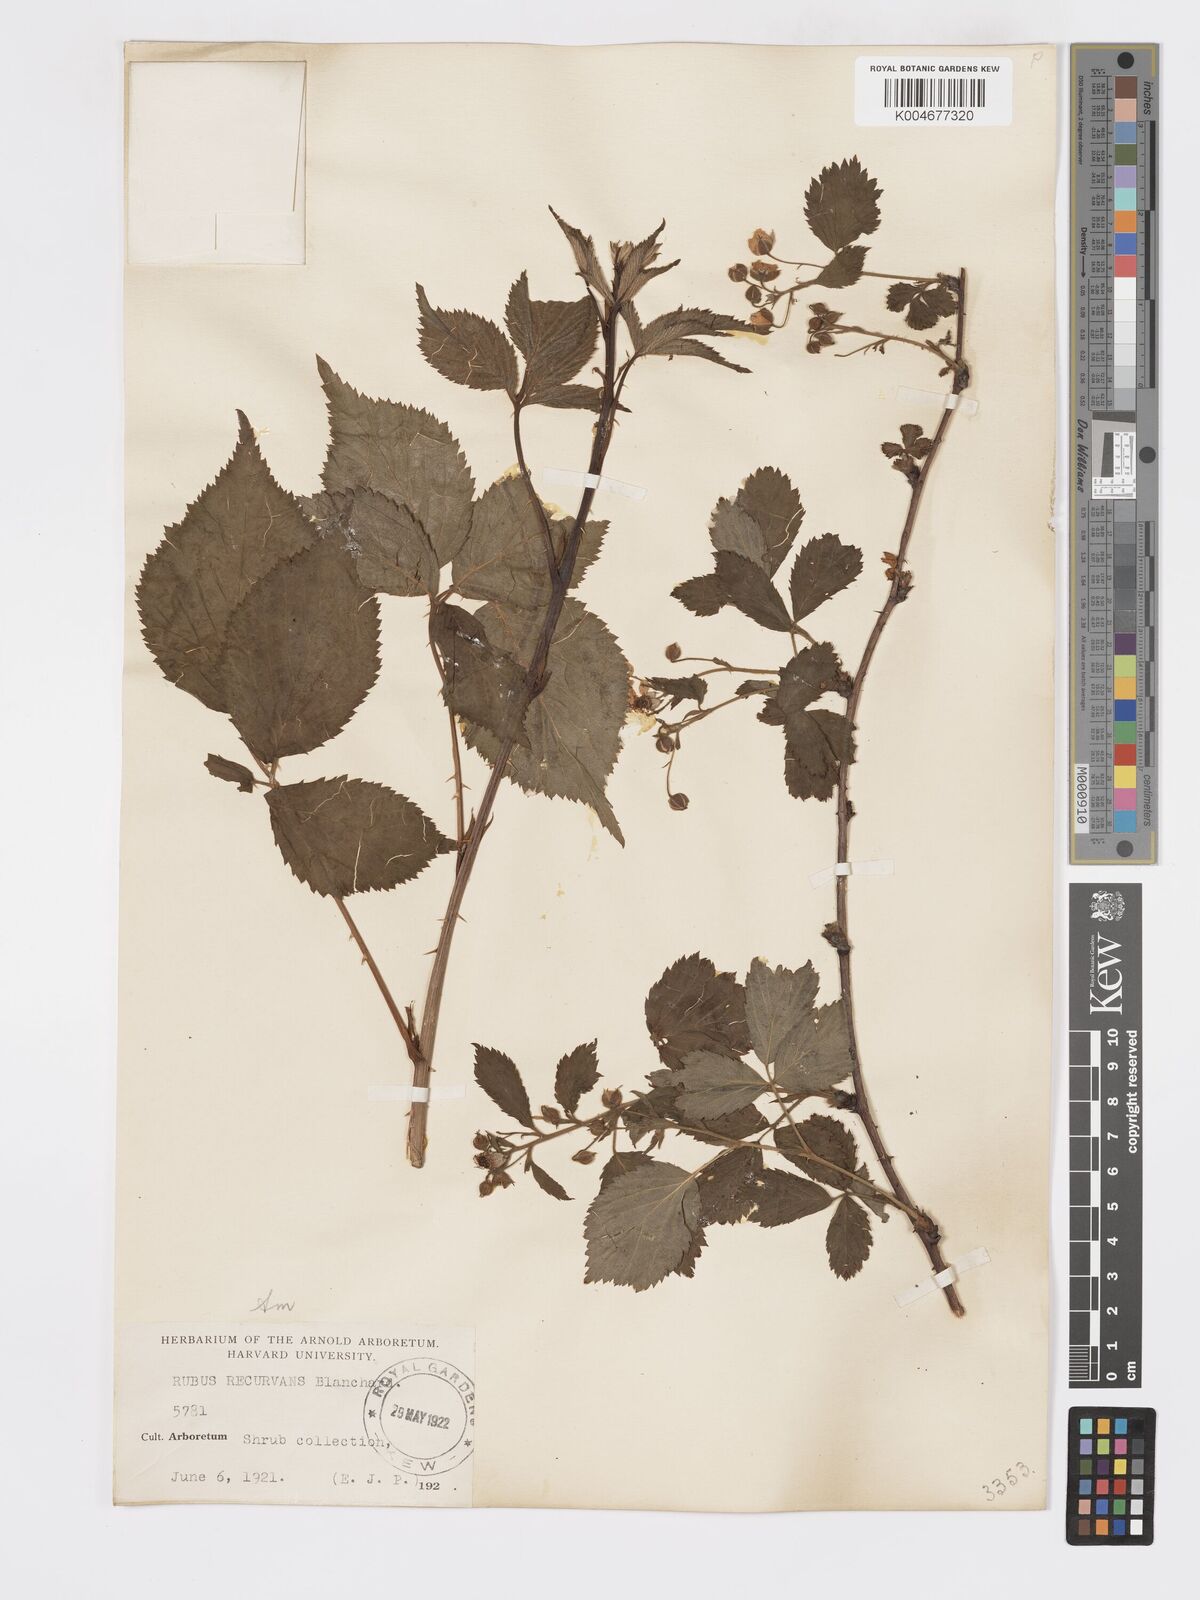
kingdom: Plantae
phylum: Tracheophyta
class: Magnoliopsida
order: Rosales
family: Rosaceae
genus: Rubus
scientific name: Rubus recurvans
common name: Recurved blackberry
